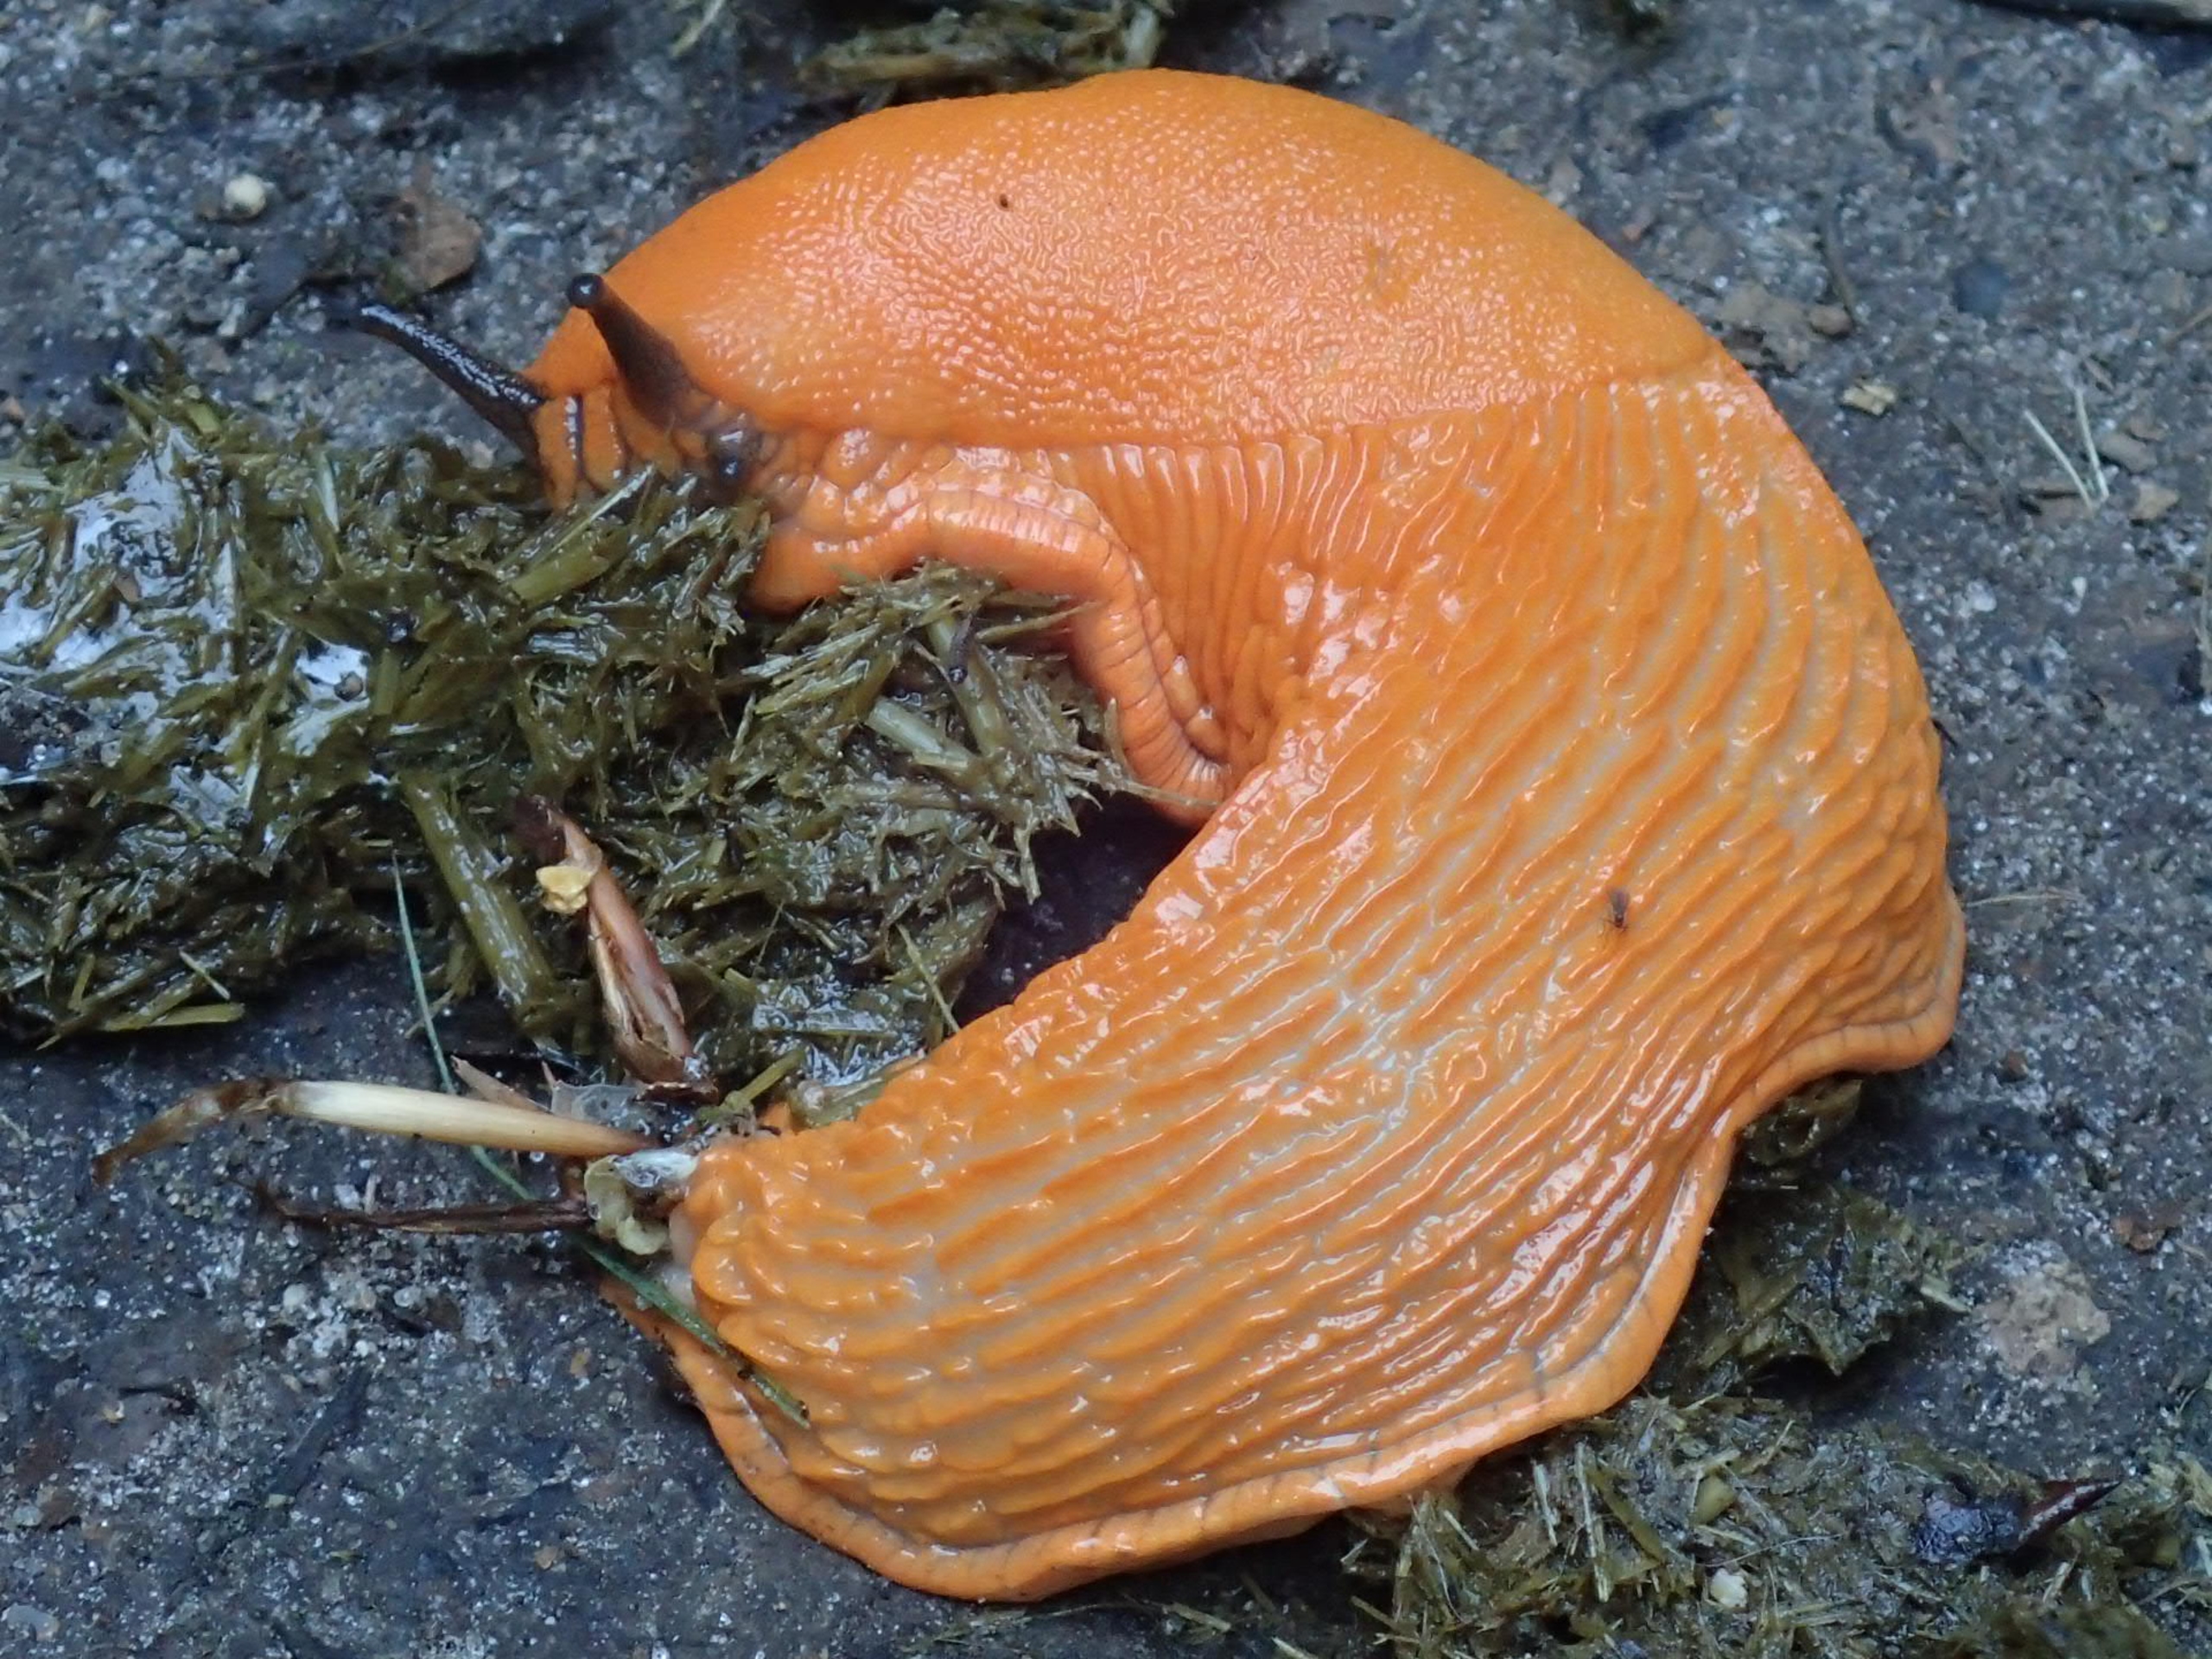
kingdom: Animalia
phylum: Mollusca
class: Gastropoda
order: Stylommatophora
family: Arionidae
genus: Arion
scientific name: Arion rufus
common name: Rød skovsnegl
